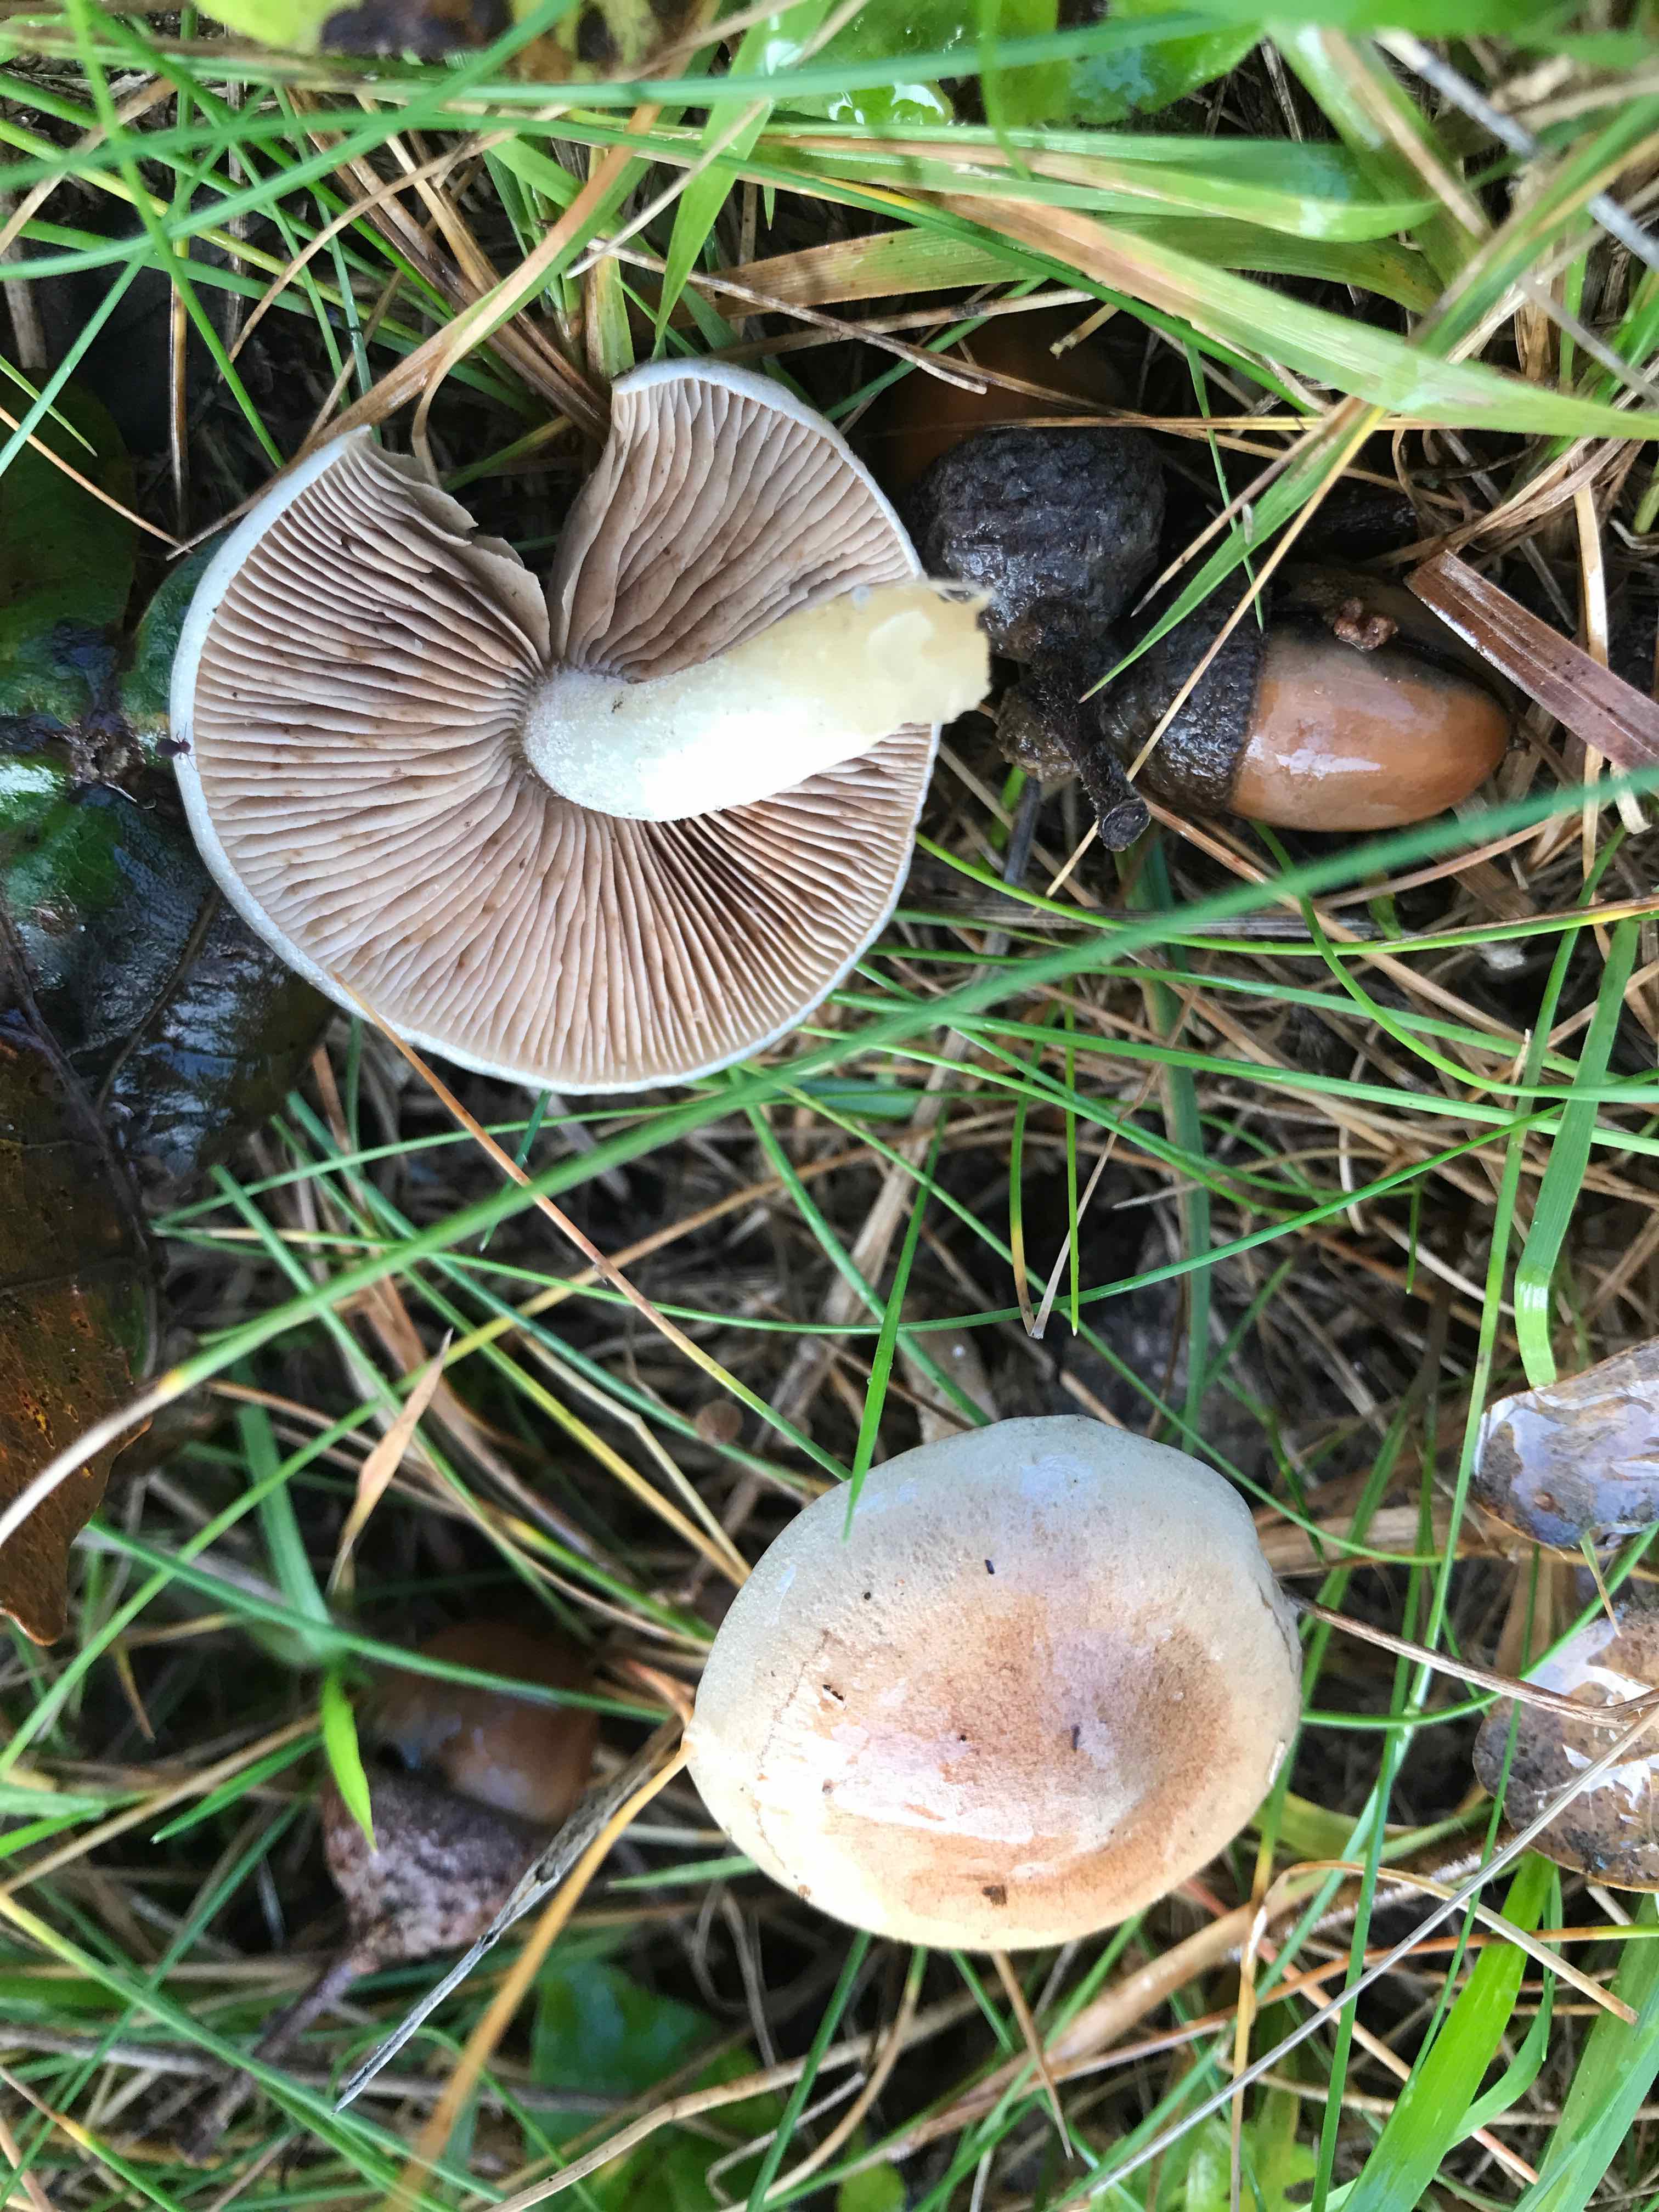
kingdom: Fungi
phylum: Basidiomycota
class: Agaricomycetes
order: Agaricales
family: Hymenogastraceae
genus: Hebeloma
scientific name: Hebeloma
